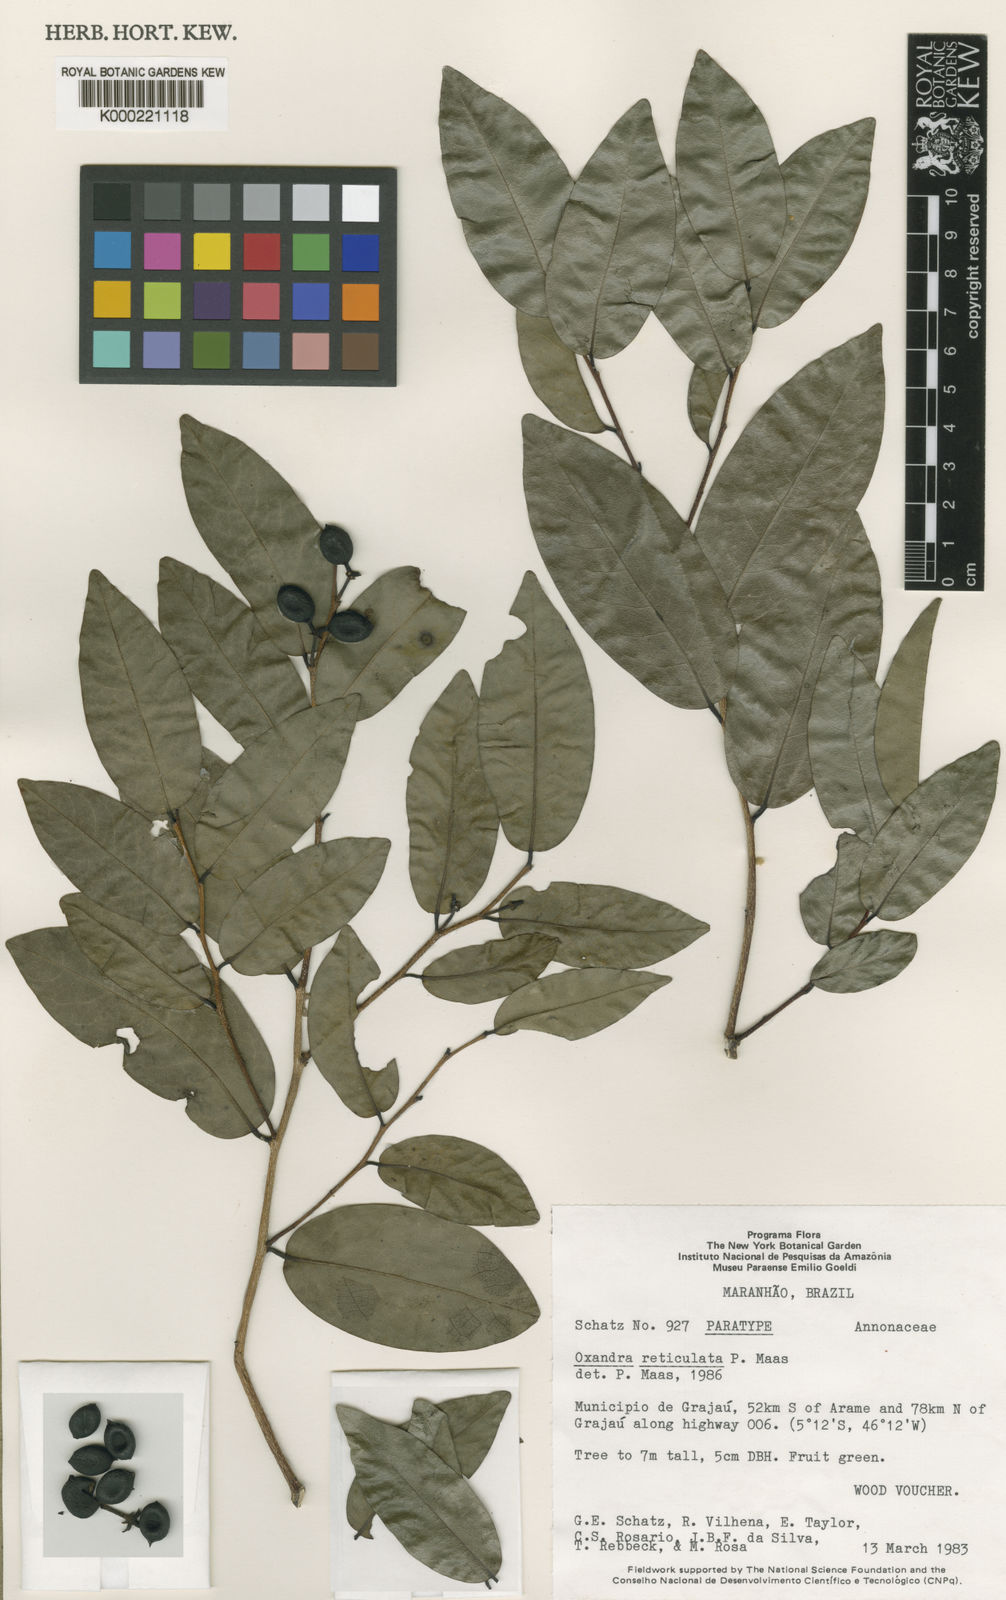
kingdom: Plantae
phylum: Tracheophyta
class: Magnoliopsida
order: Magnoliales
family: Annonaceae
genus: Oxandra
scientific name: Oxandra reticulata
